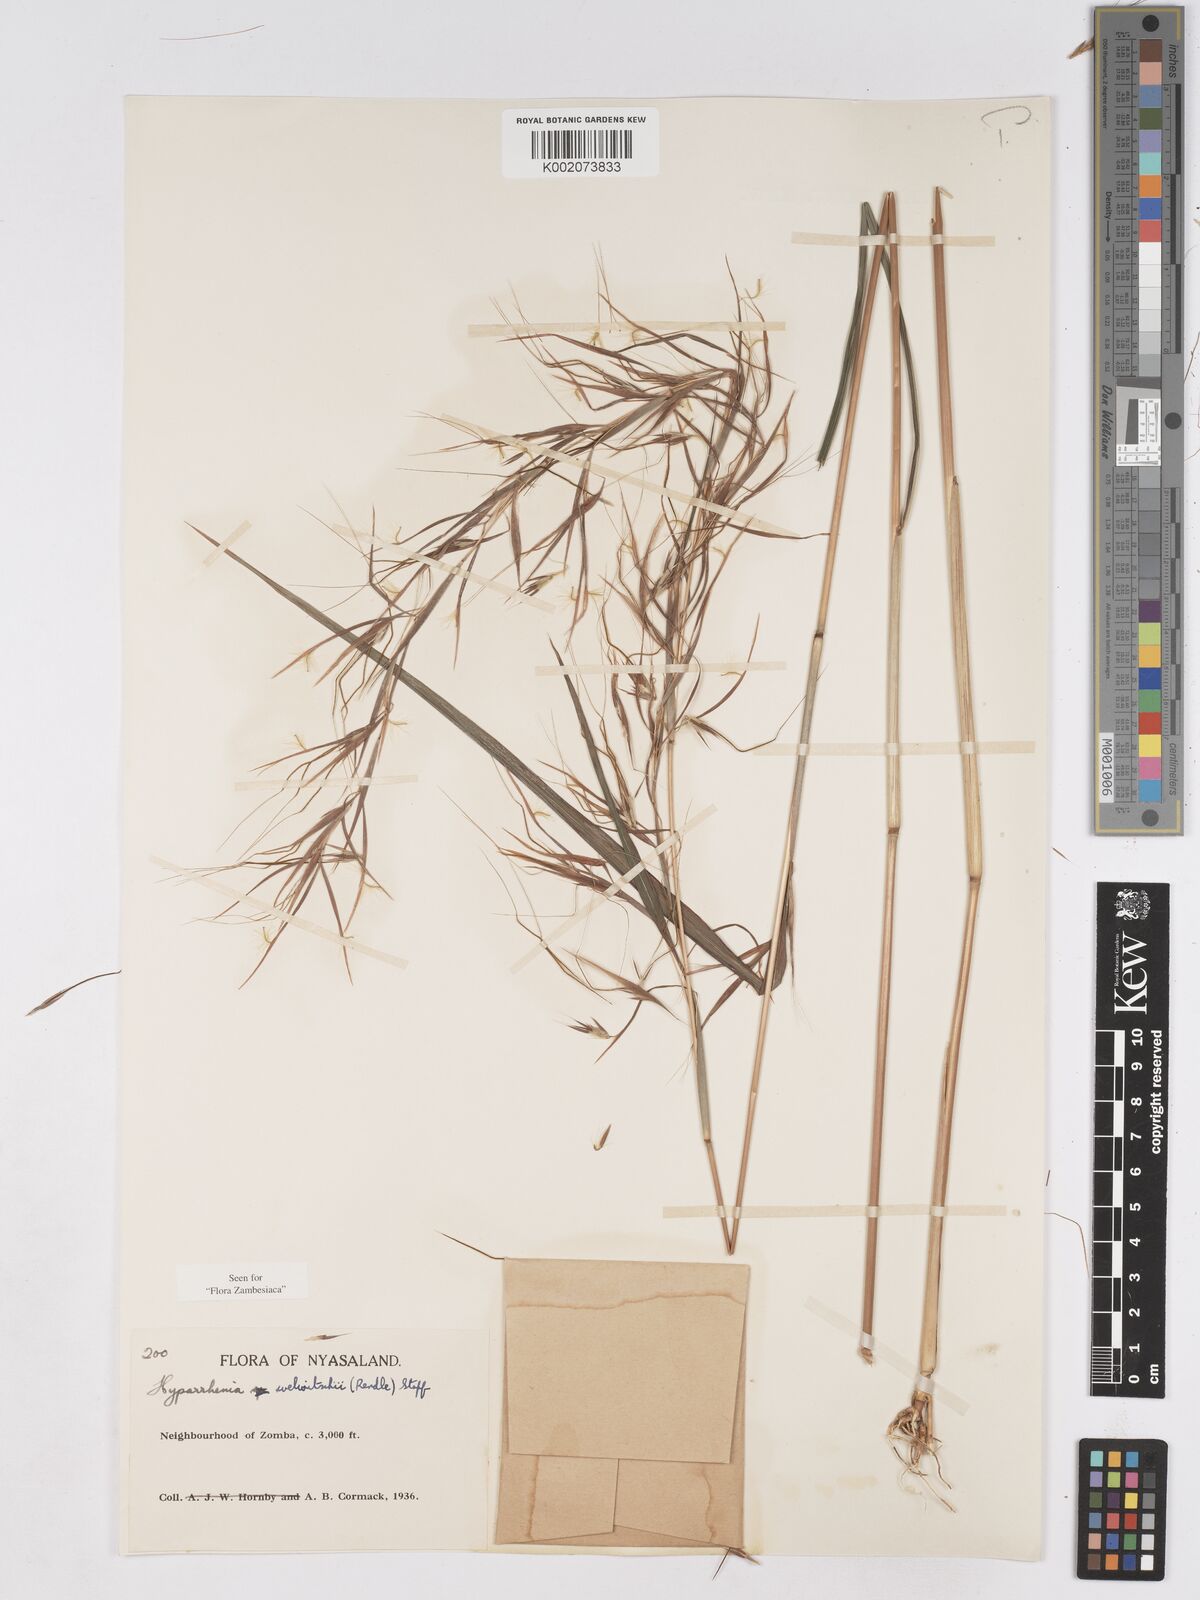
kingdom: Plantae
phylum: Tracheophyta
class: Liliopsida
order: Poales
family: Poaceae
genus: Hyparrhenia
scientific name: Hyparrhenia welwitschii
